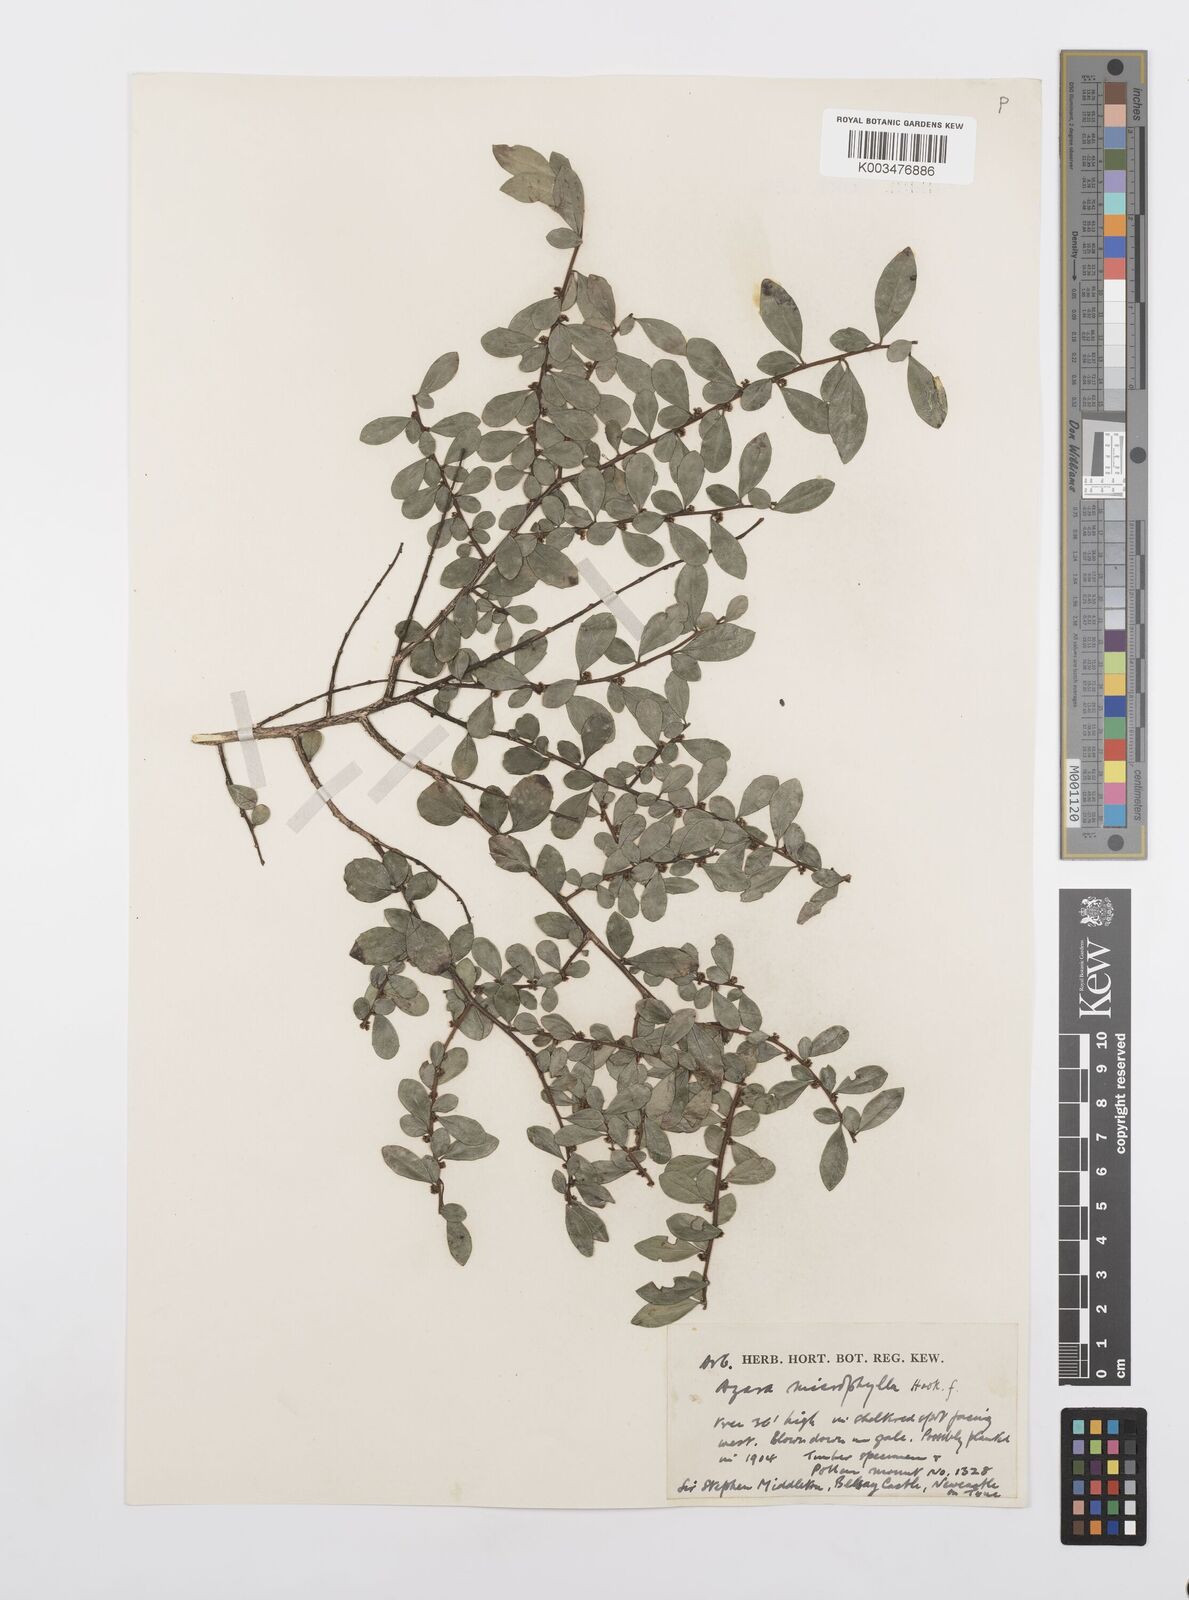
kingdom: Plantae
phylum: Tracheophyta
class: Magnoliopsida
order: Malpighiales
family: Salicaceae
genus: Azara
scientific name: Azara microphylla
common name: Box-leaf azara
